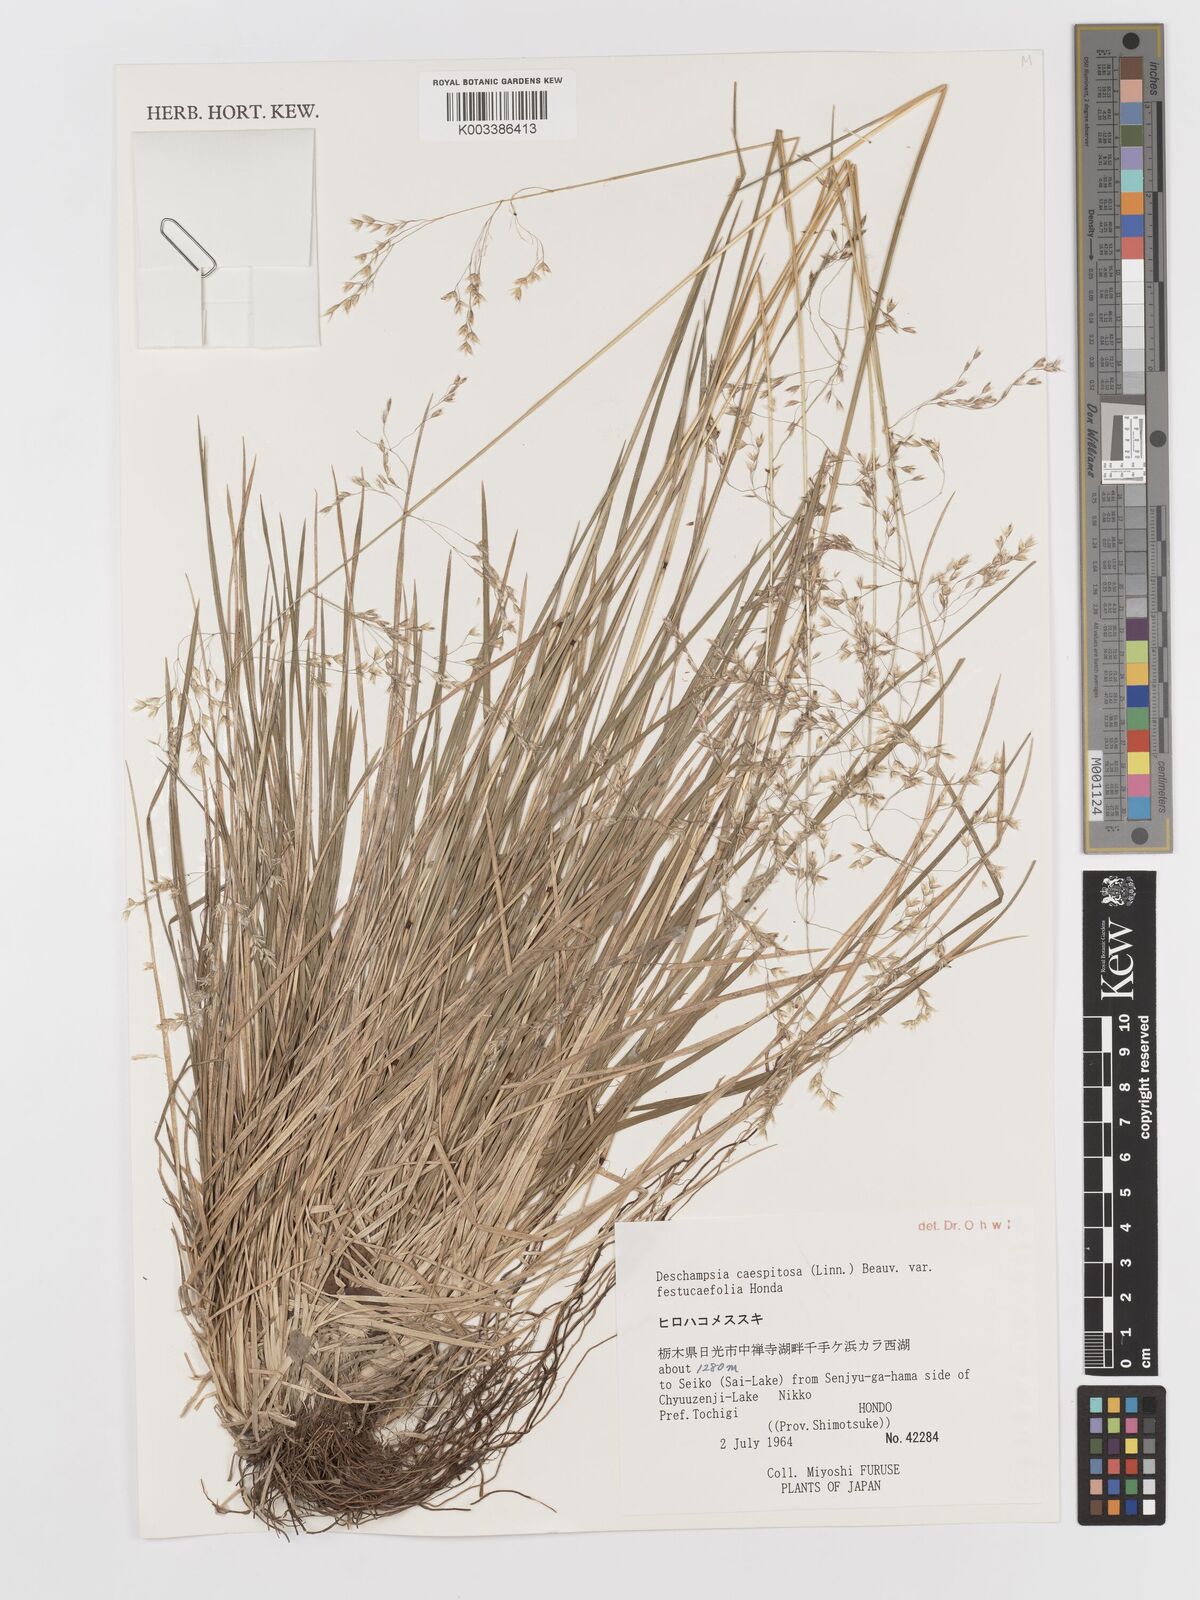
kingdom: Plantae
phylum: Tracheophyta
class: Liliopsida
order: Poales
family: Poaceae
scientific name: Poaceae
